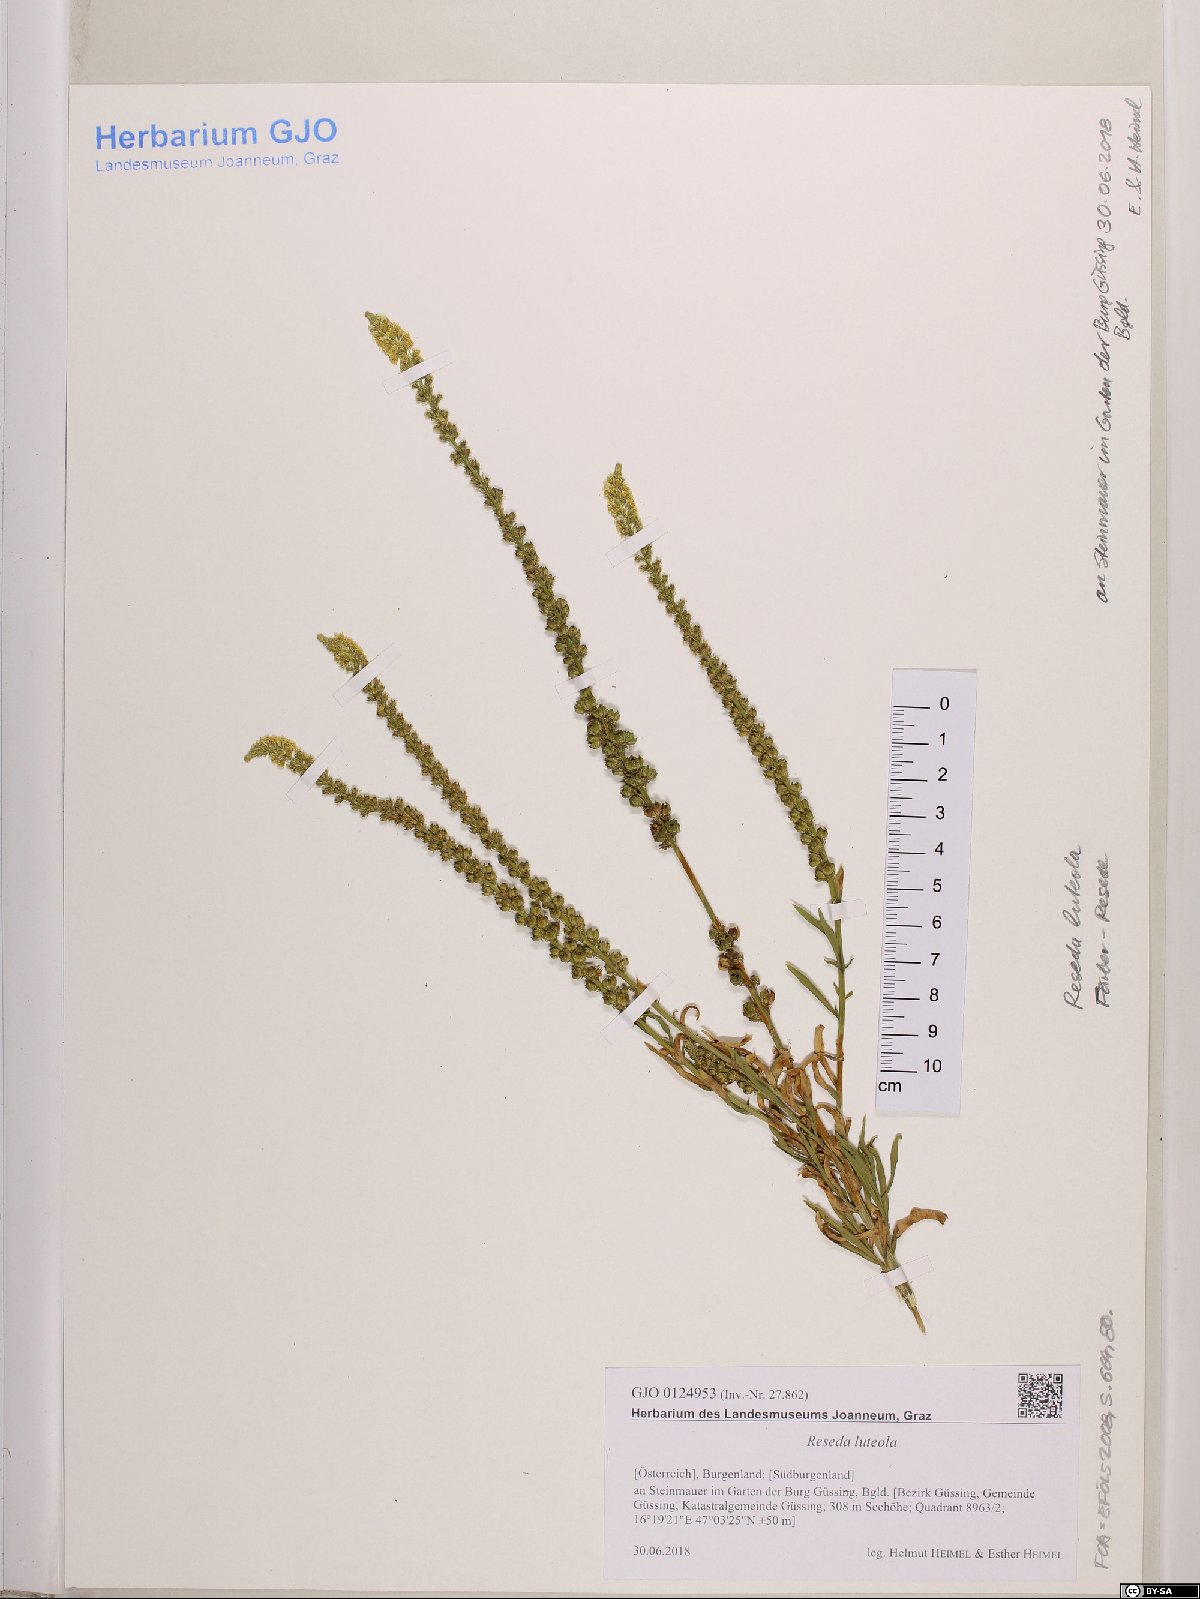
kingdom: Plantae
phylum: Tracheophyta
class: Magnoliopsida
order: Brassicales
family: Resedaceae
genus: Reseda
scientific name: Reseda luteola
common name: Weld
